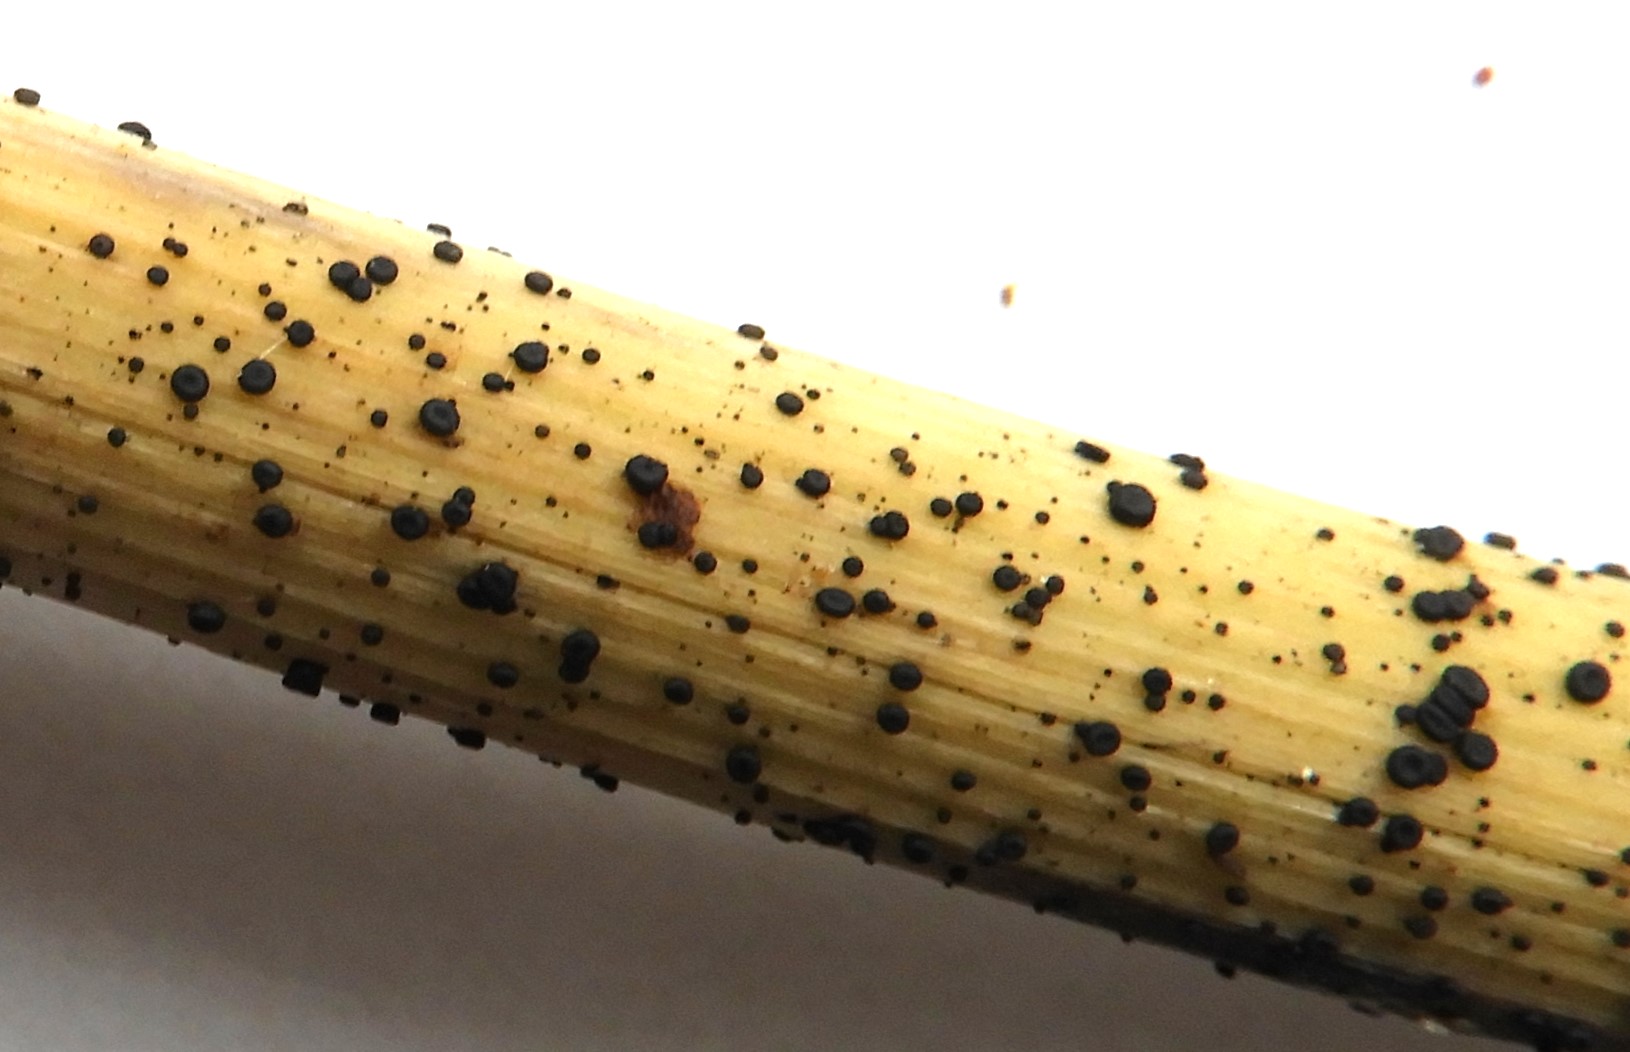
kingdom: Fungi
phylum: Ascomycota
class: Leotiomycetes
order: Helotiales
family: Heterosphaeriaceae
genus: Heterosphaeria
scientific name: Heterosphaeria
